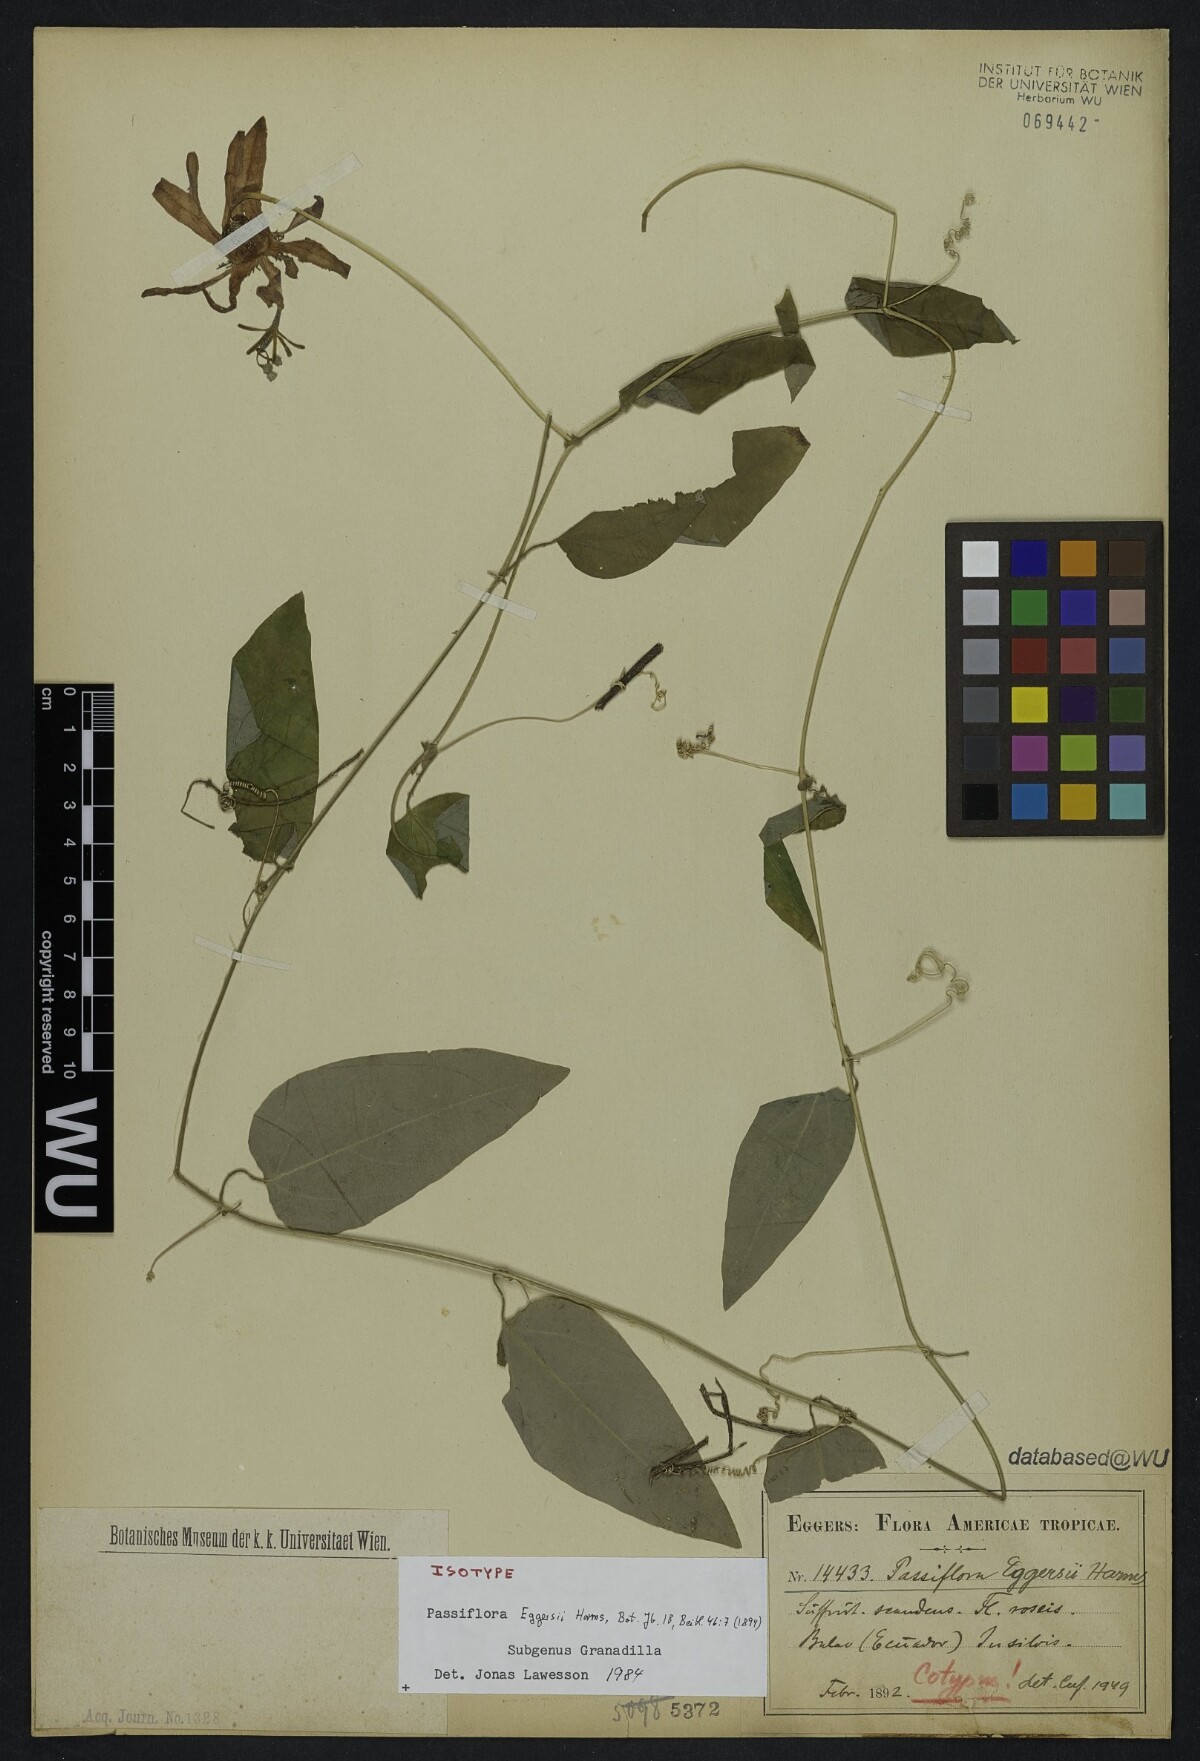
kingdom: Plantae
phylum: Tracheophyta
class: Magnoliopsida
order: Malpighiales
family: Passifloraceae
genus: Passiflora
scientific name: Passiflora eggersii
